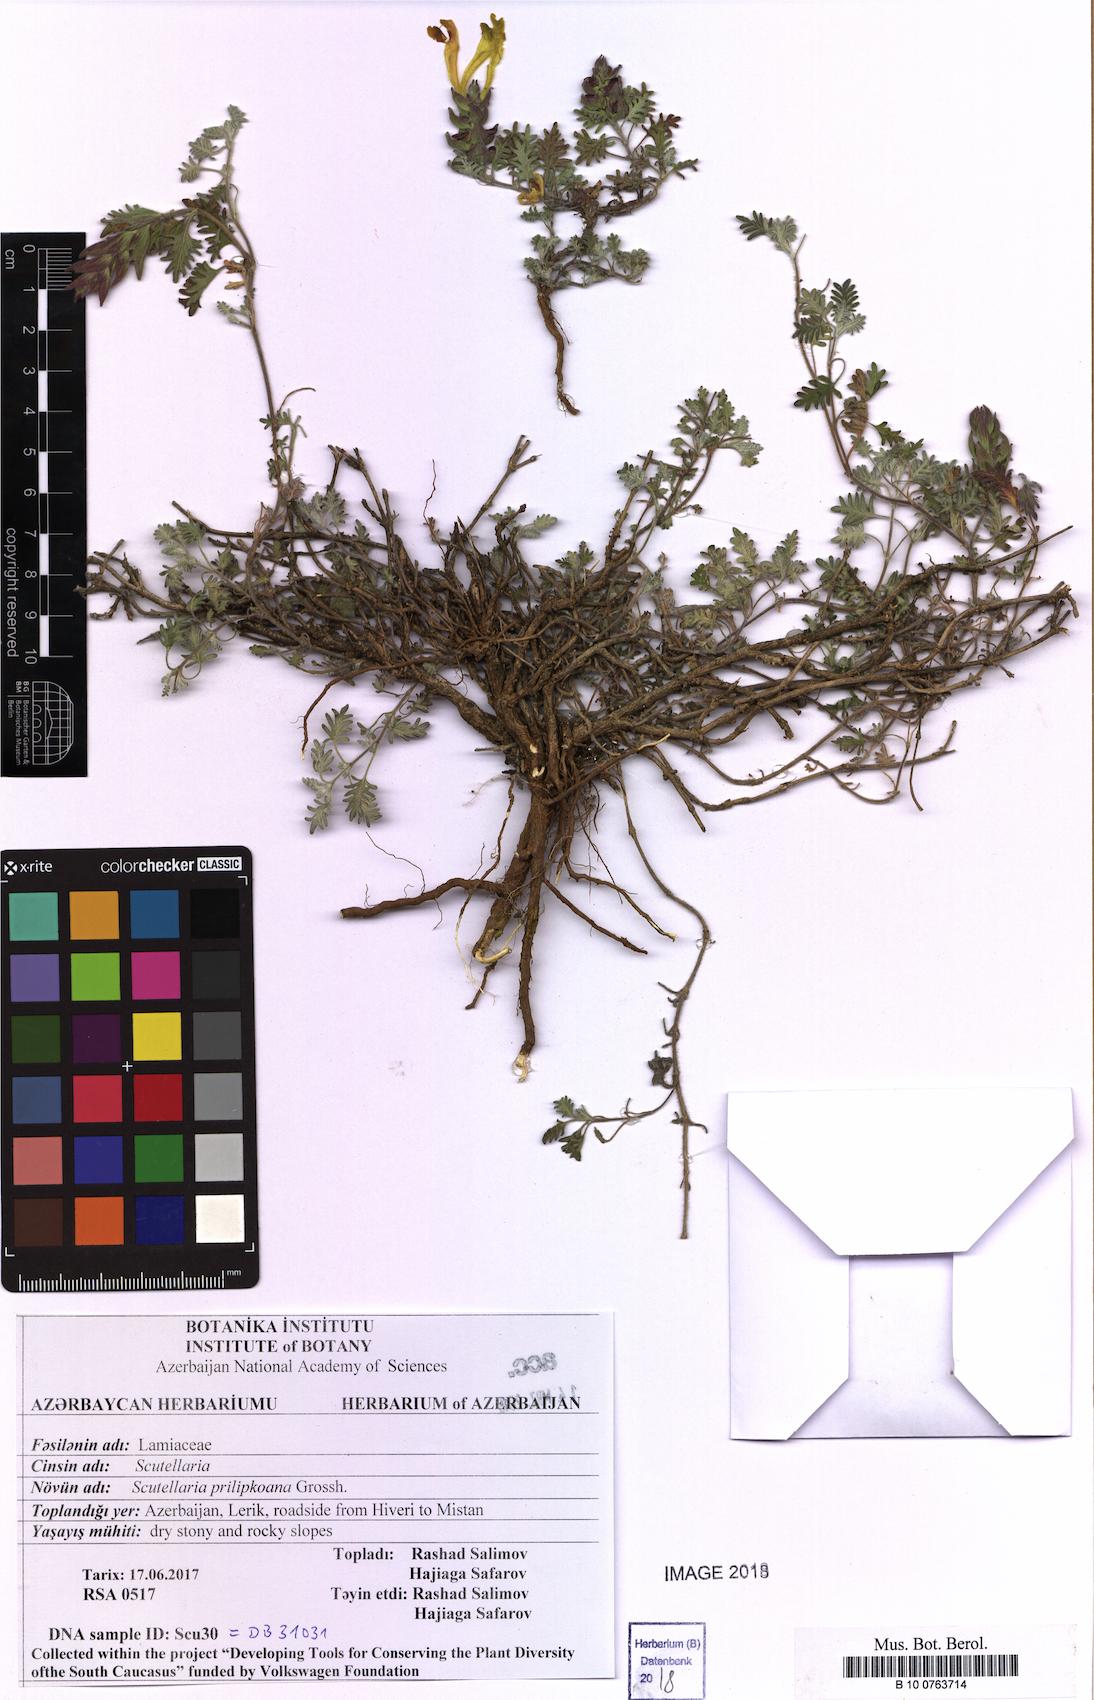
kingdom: Plantae
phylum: Tracheophyta
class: Magnoliopsida
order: Lamiales
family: Lamiaceae
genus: Scutellaria
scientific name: Scutellaria prilipkoana
